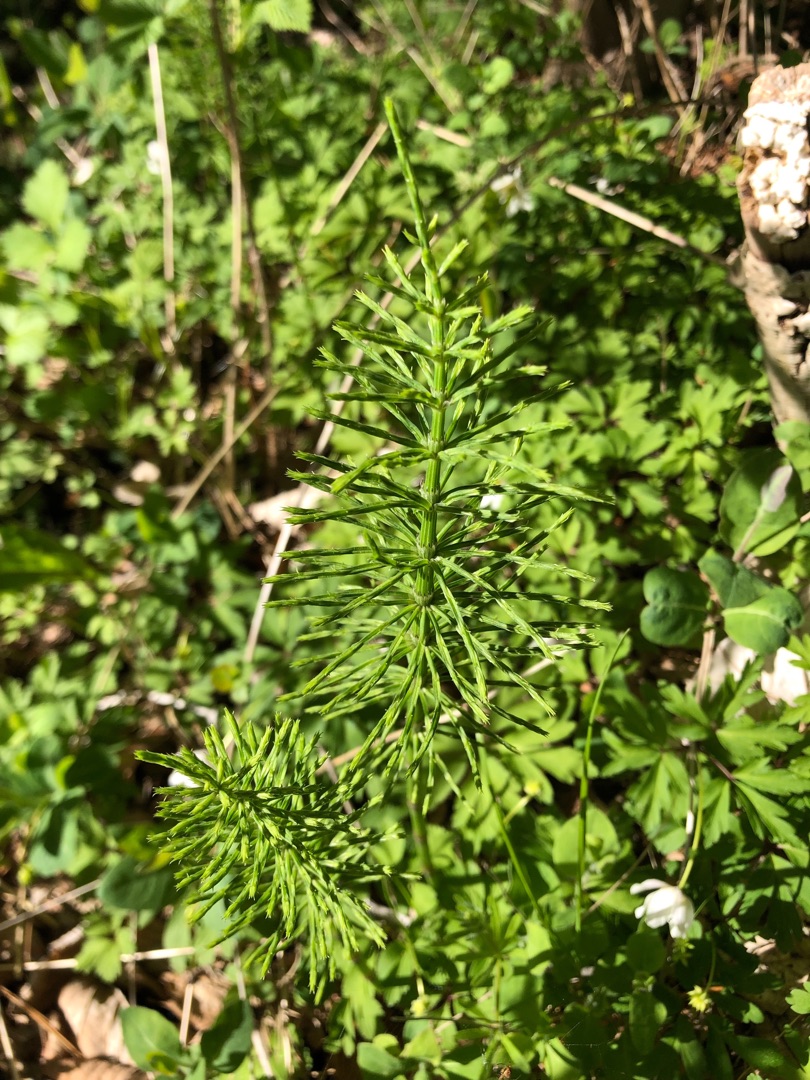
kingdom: Plantae
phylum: Tracheophyta
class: Polypodiopsida
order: Equisetales
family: Equisetaceae
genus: Equisetum
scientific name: Equisetum arvense
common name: Ager-padderok
